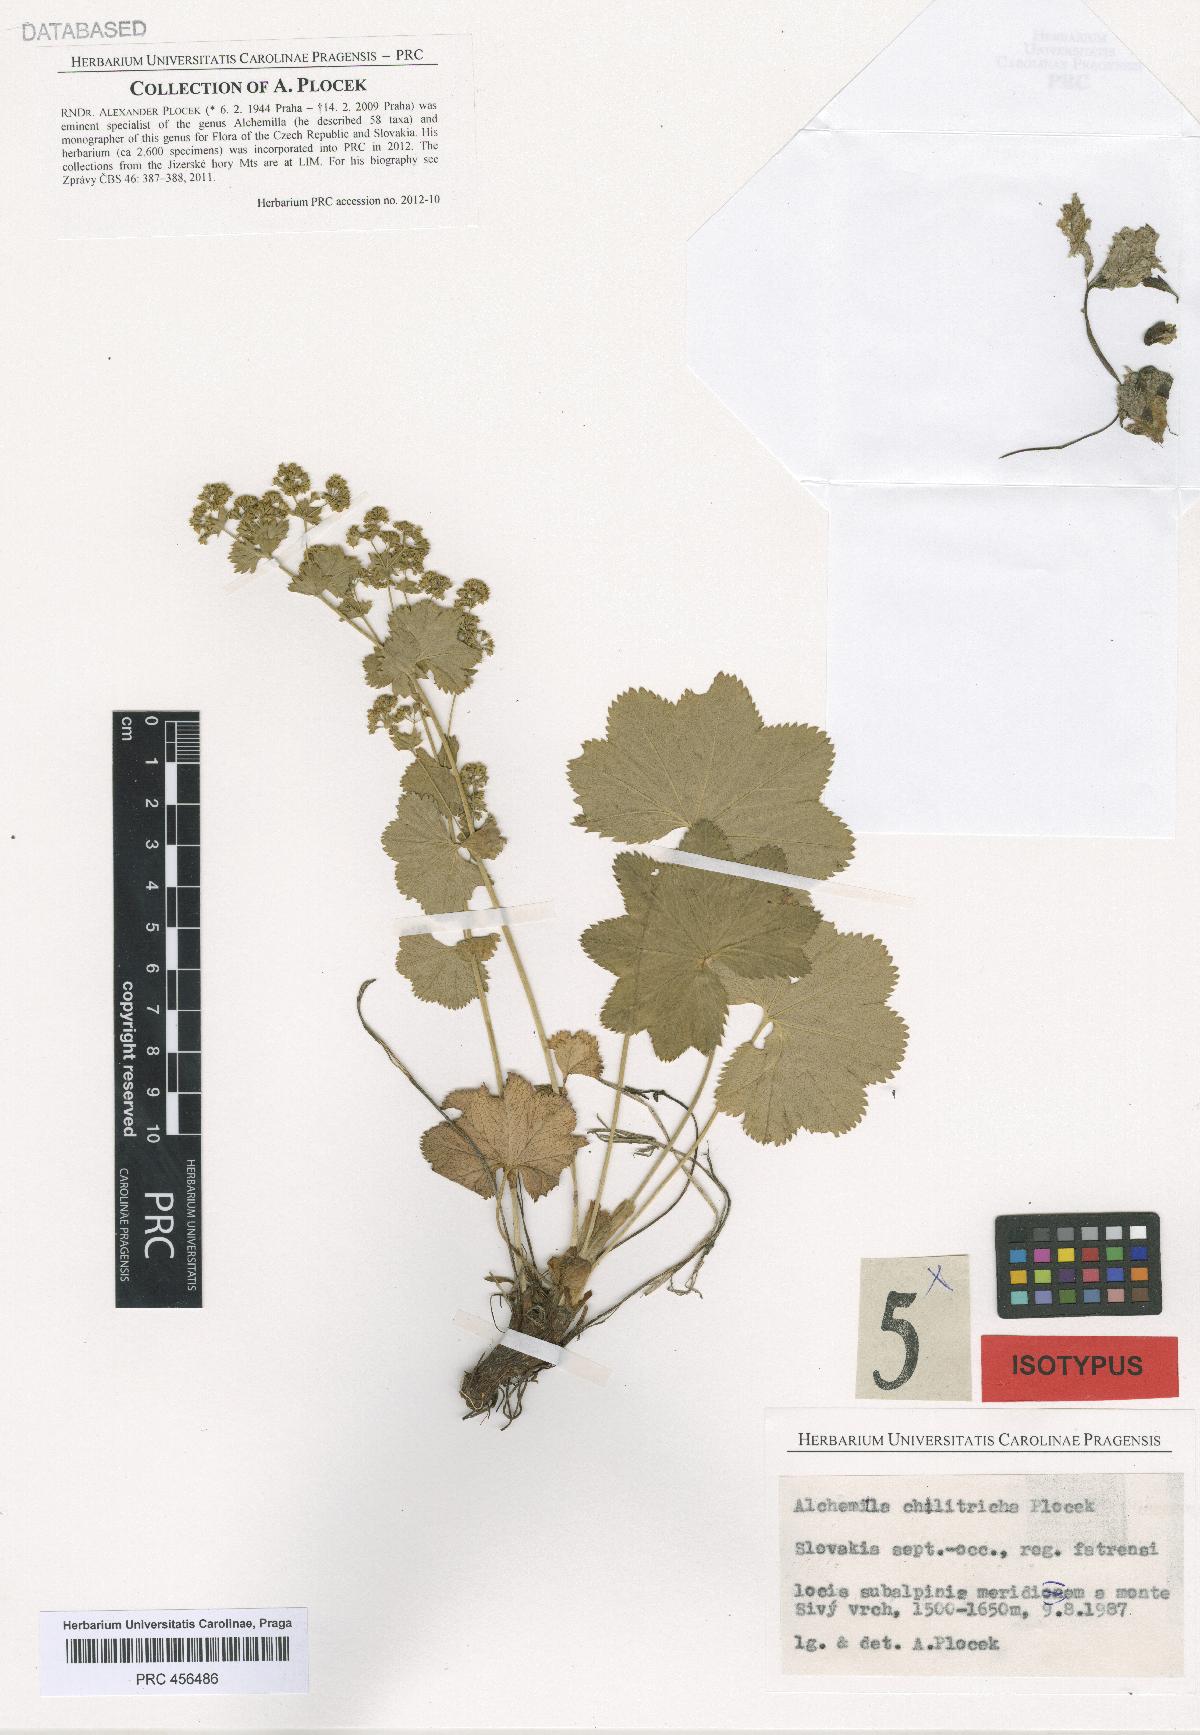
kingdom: Plantae
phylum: Tracheophyta
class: Magnoliopsida
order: Rosales
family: Rosaceae
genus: Alchemilla
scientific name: Alchemilla chilitricha
